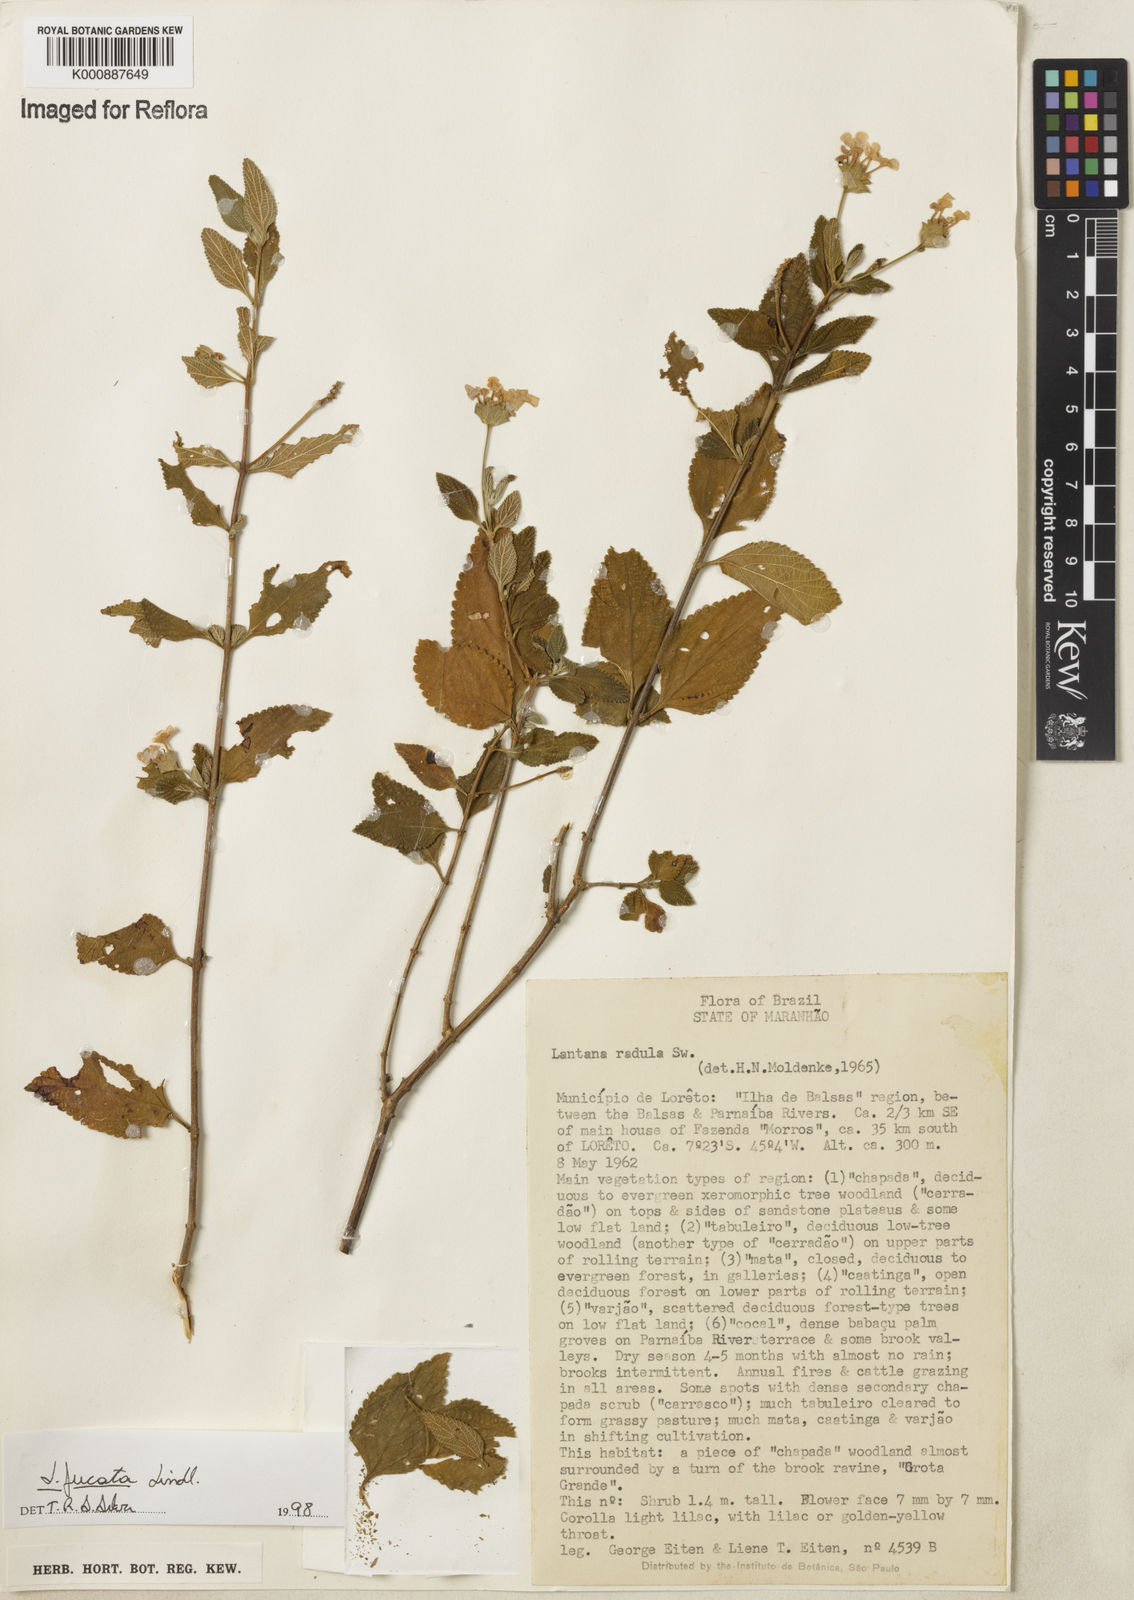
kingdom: Plantae
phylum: Tracheophyta
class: Magnoliopsida
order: Lamiales
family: Verbenaceae
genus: Lantana
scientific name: Lantana fucata
